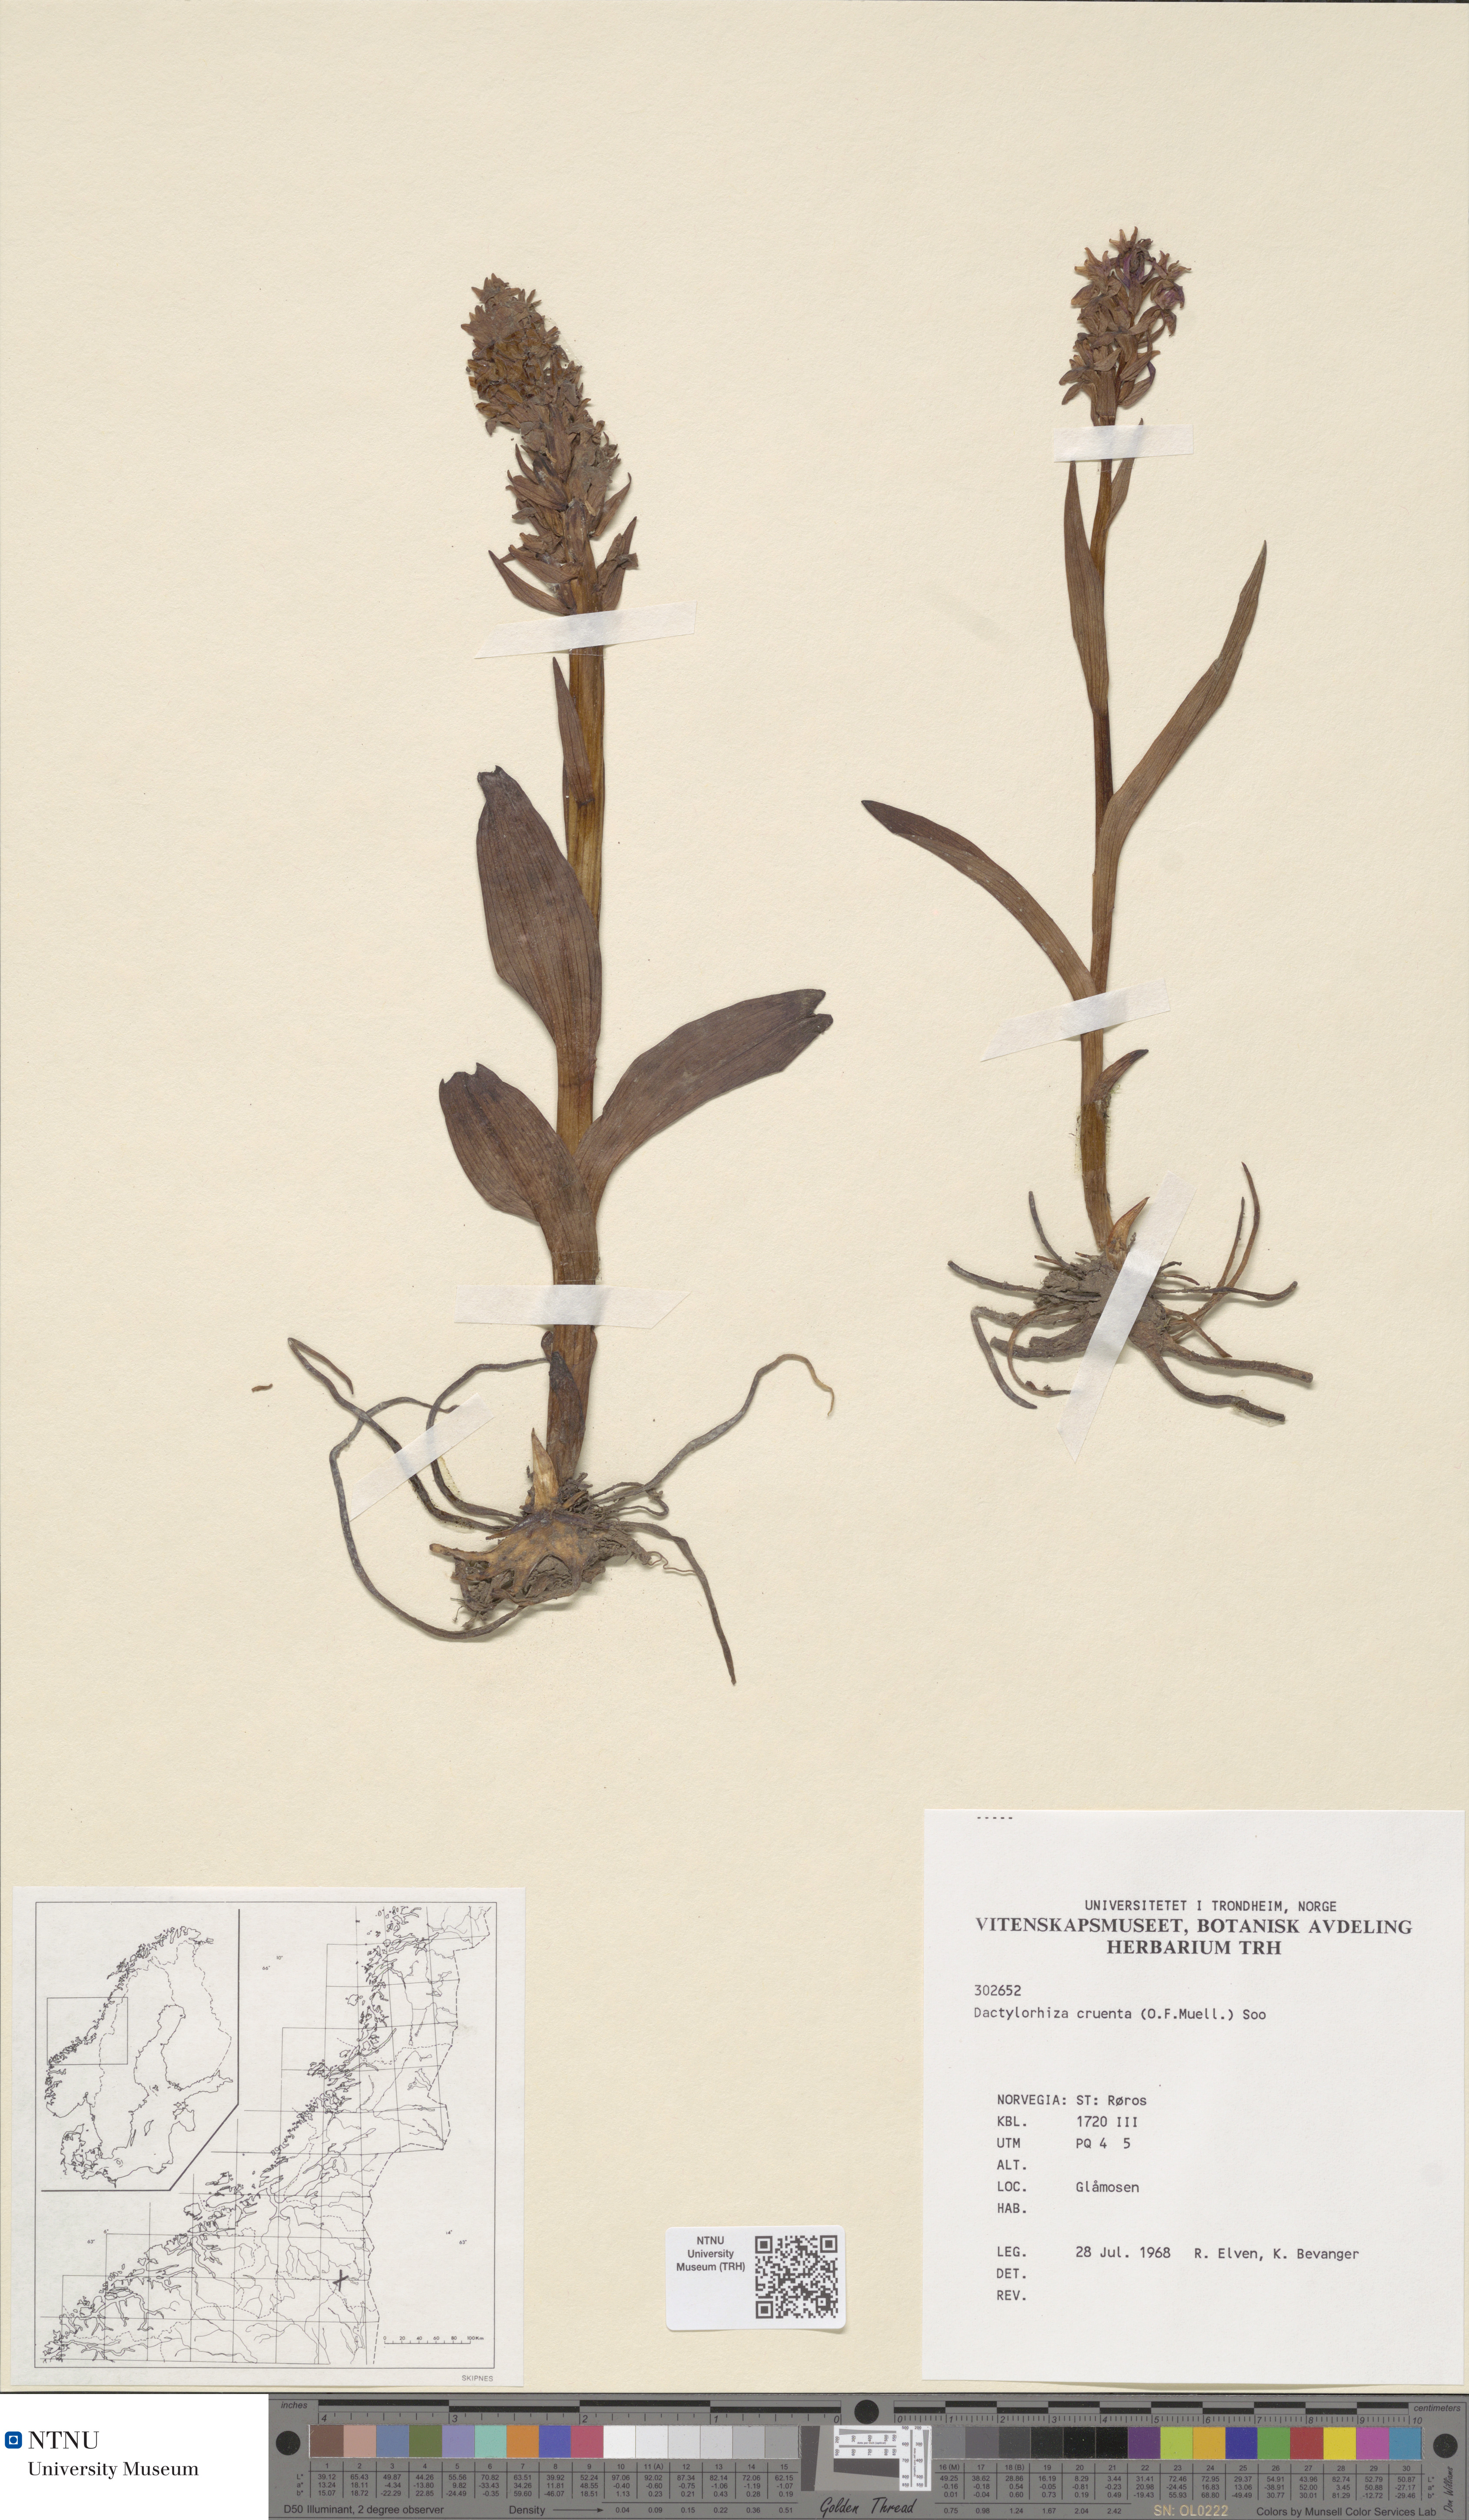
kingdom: Plantae
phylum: Tracheophyta
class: Liliopsida
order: Asparagales
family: Orchidaceae
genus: Dactylorhiza
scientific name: Dactylorhiza incarnata
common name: Early marsh-orchid
